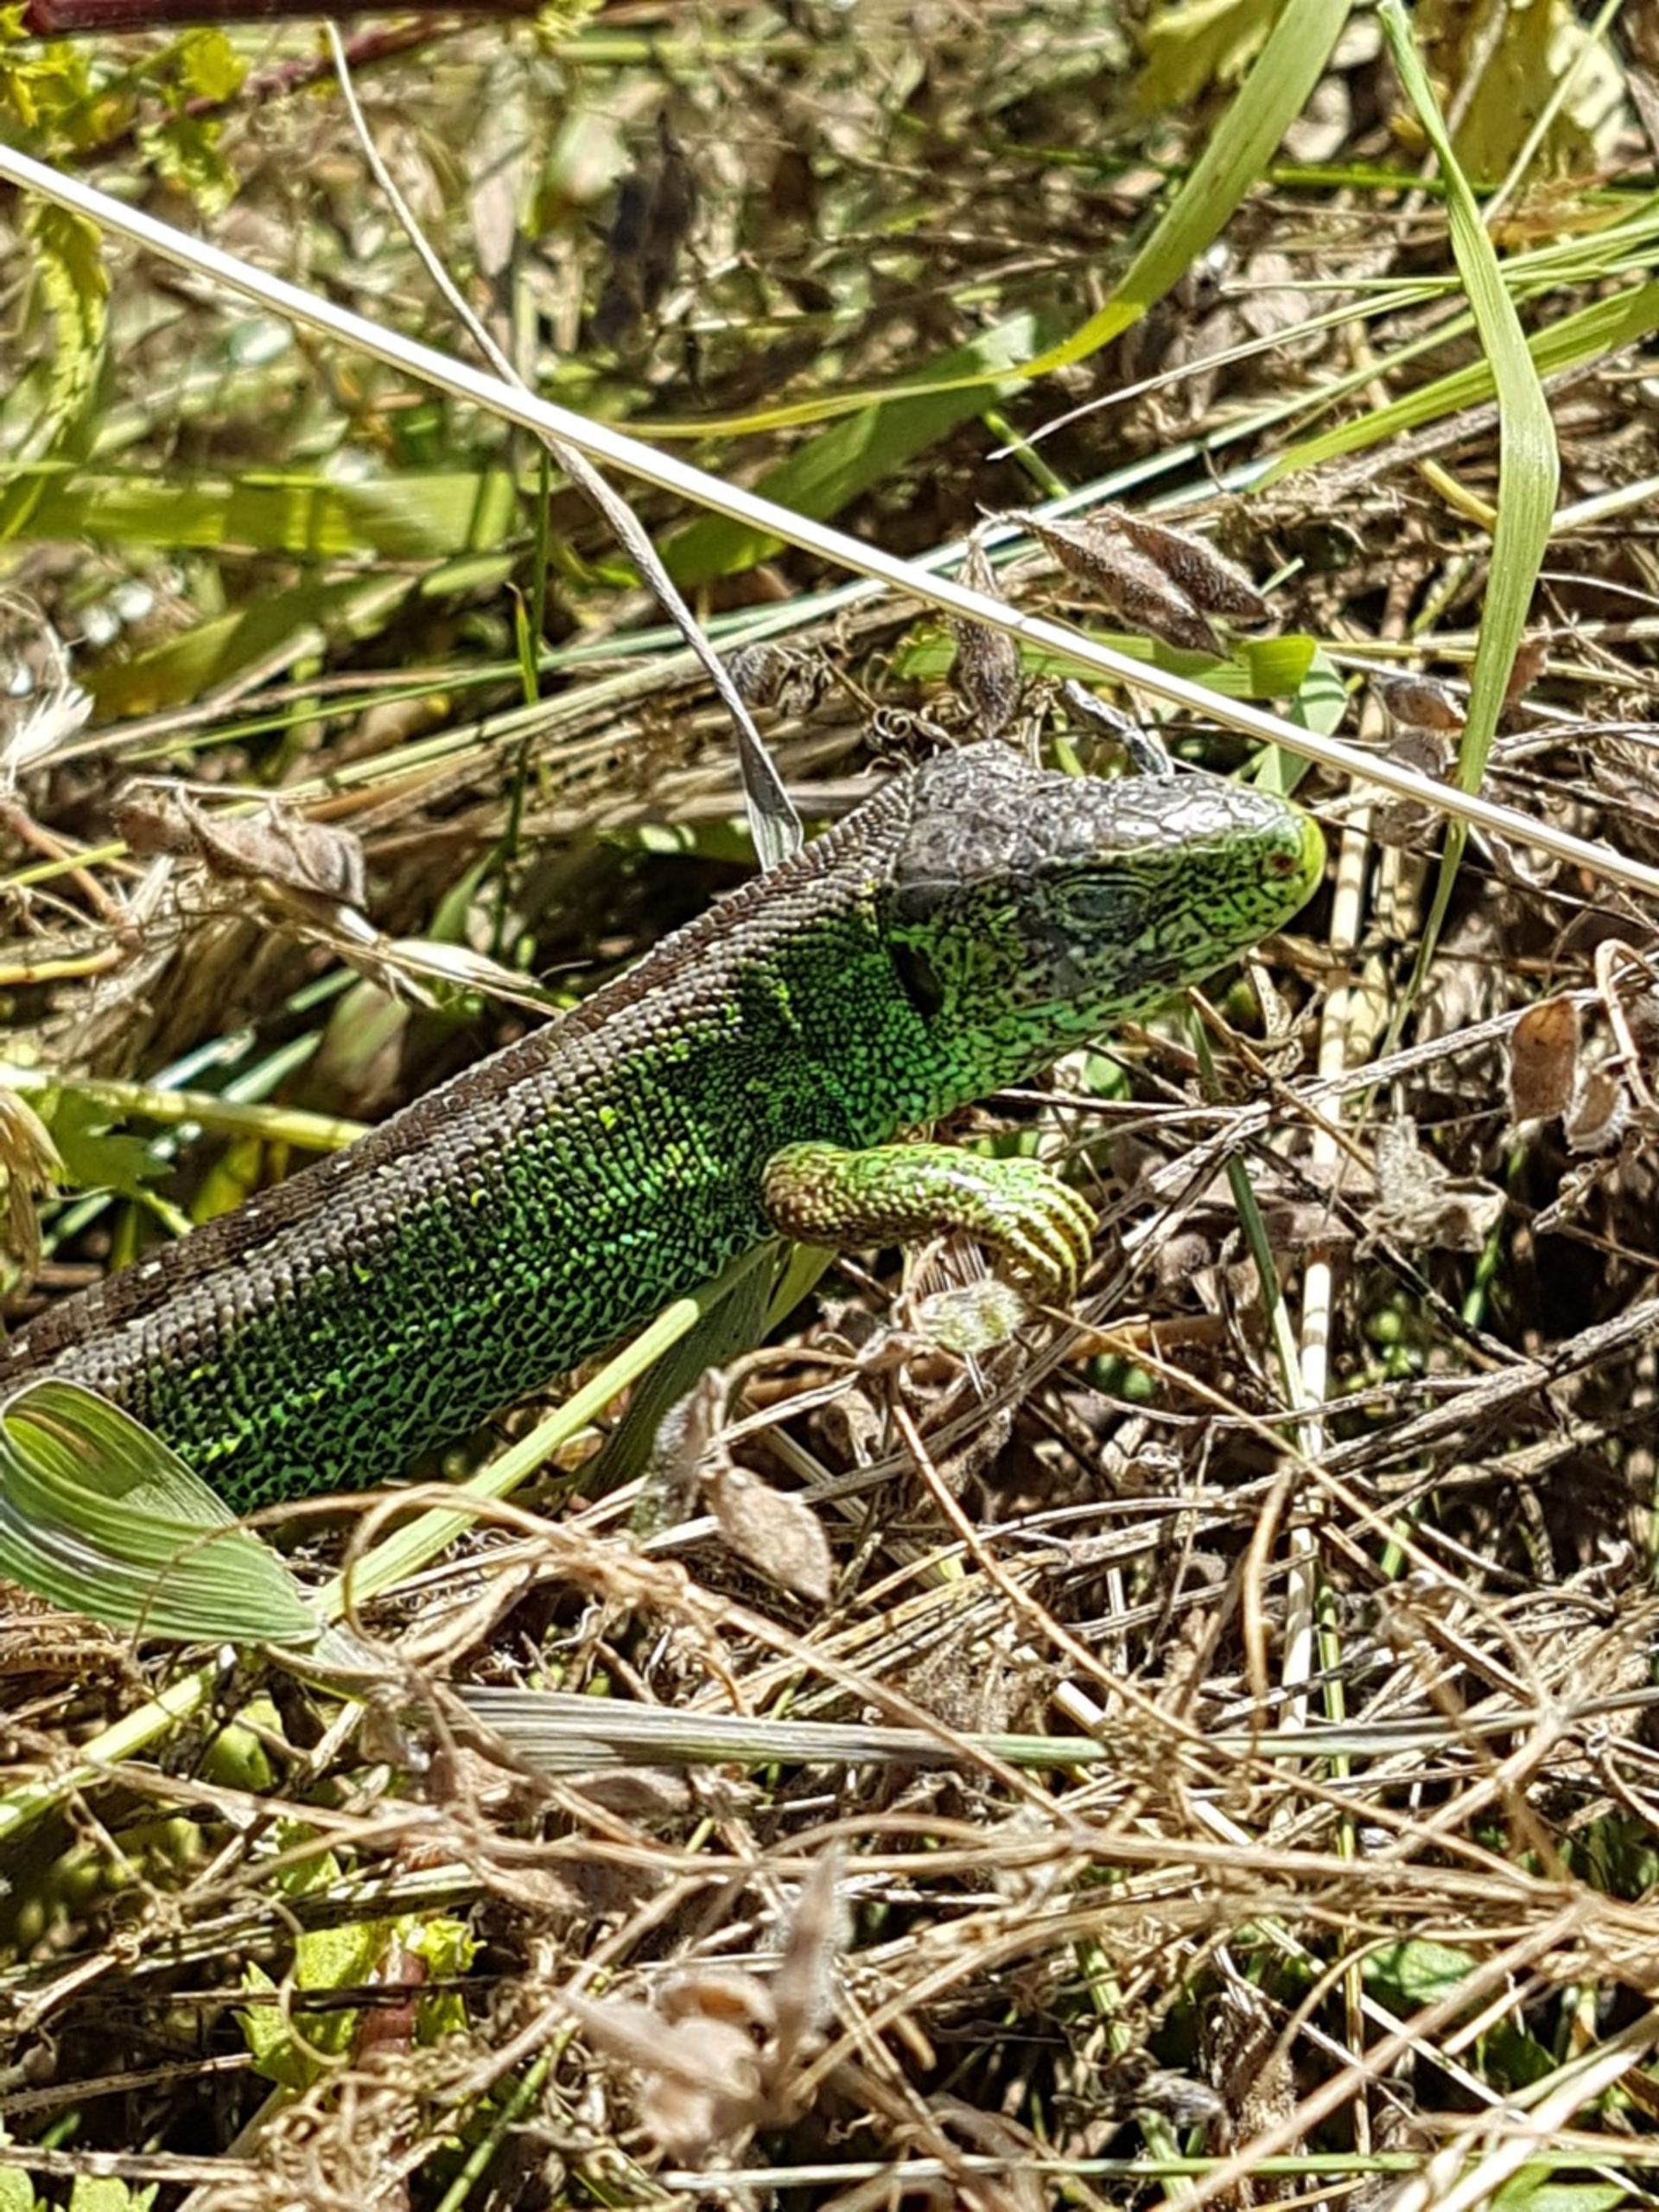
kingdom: Animalia
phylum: Chordata
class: Squamata
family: Lacertidae
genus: Lacerta
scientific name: Lacerta agilis
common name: Markfirben
